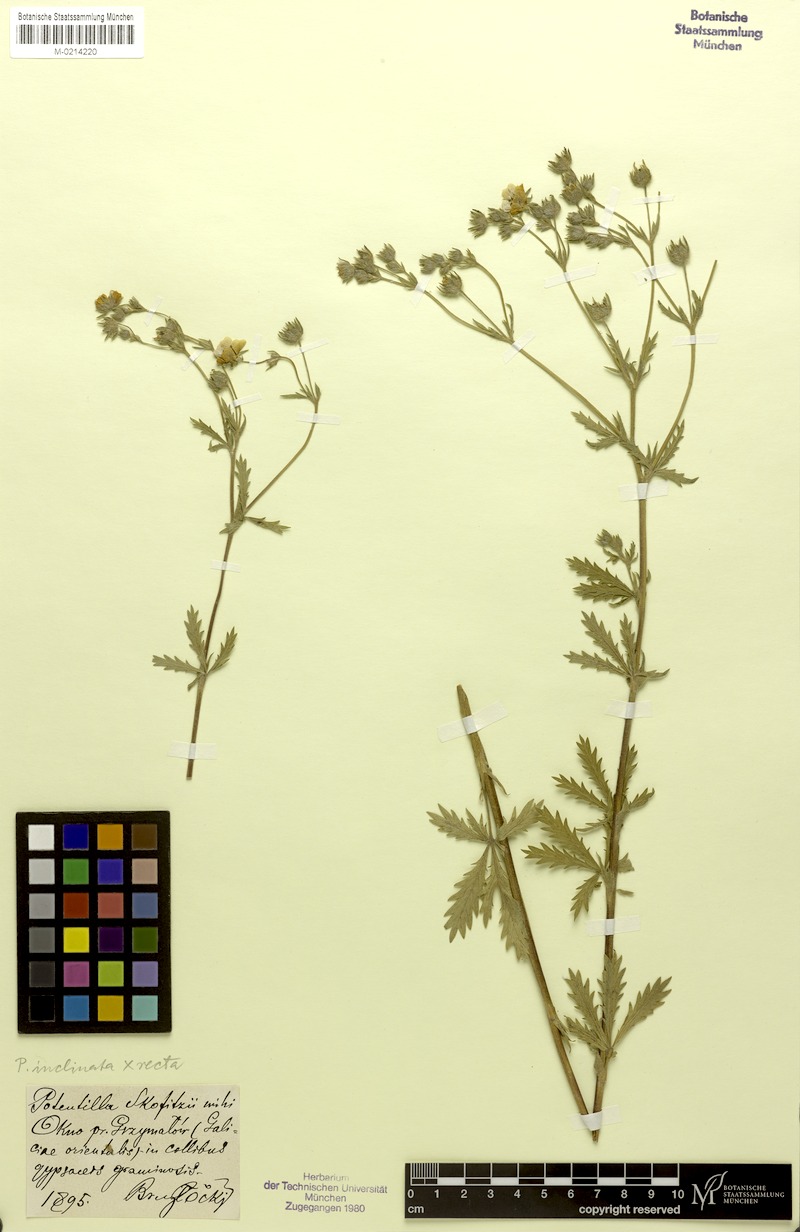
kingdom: Plantae
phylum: Tracheophyta
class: Magnoliopsida
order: Rosales
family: Rosaceae
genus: Potentilla
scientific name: Potentilla
